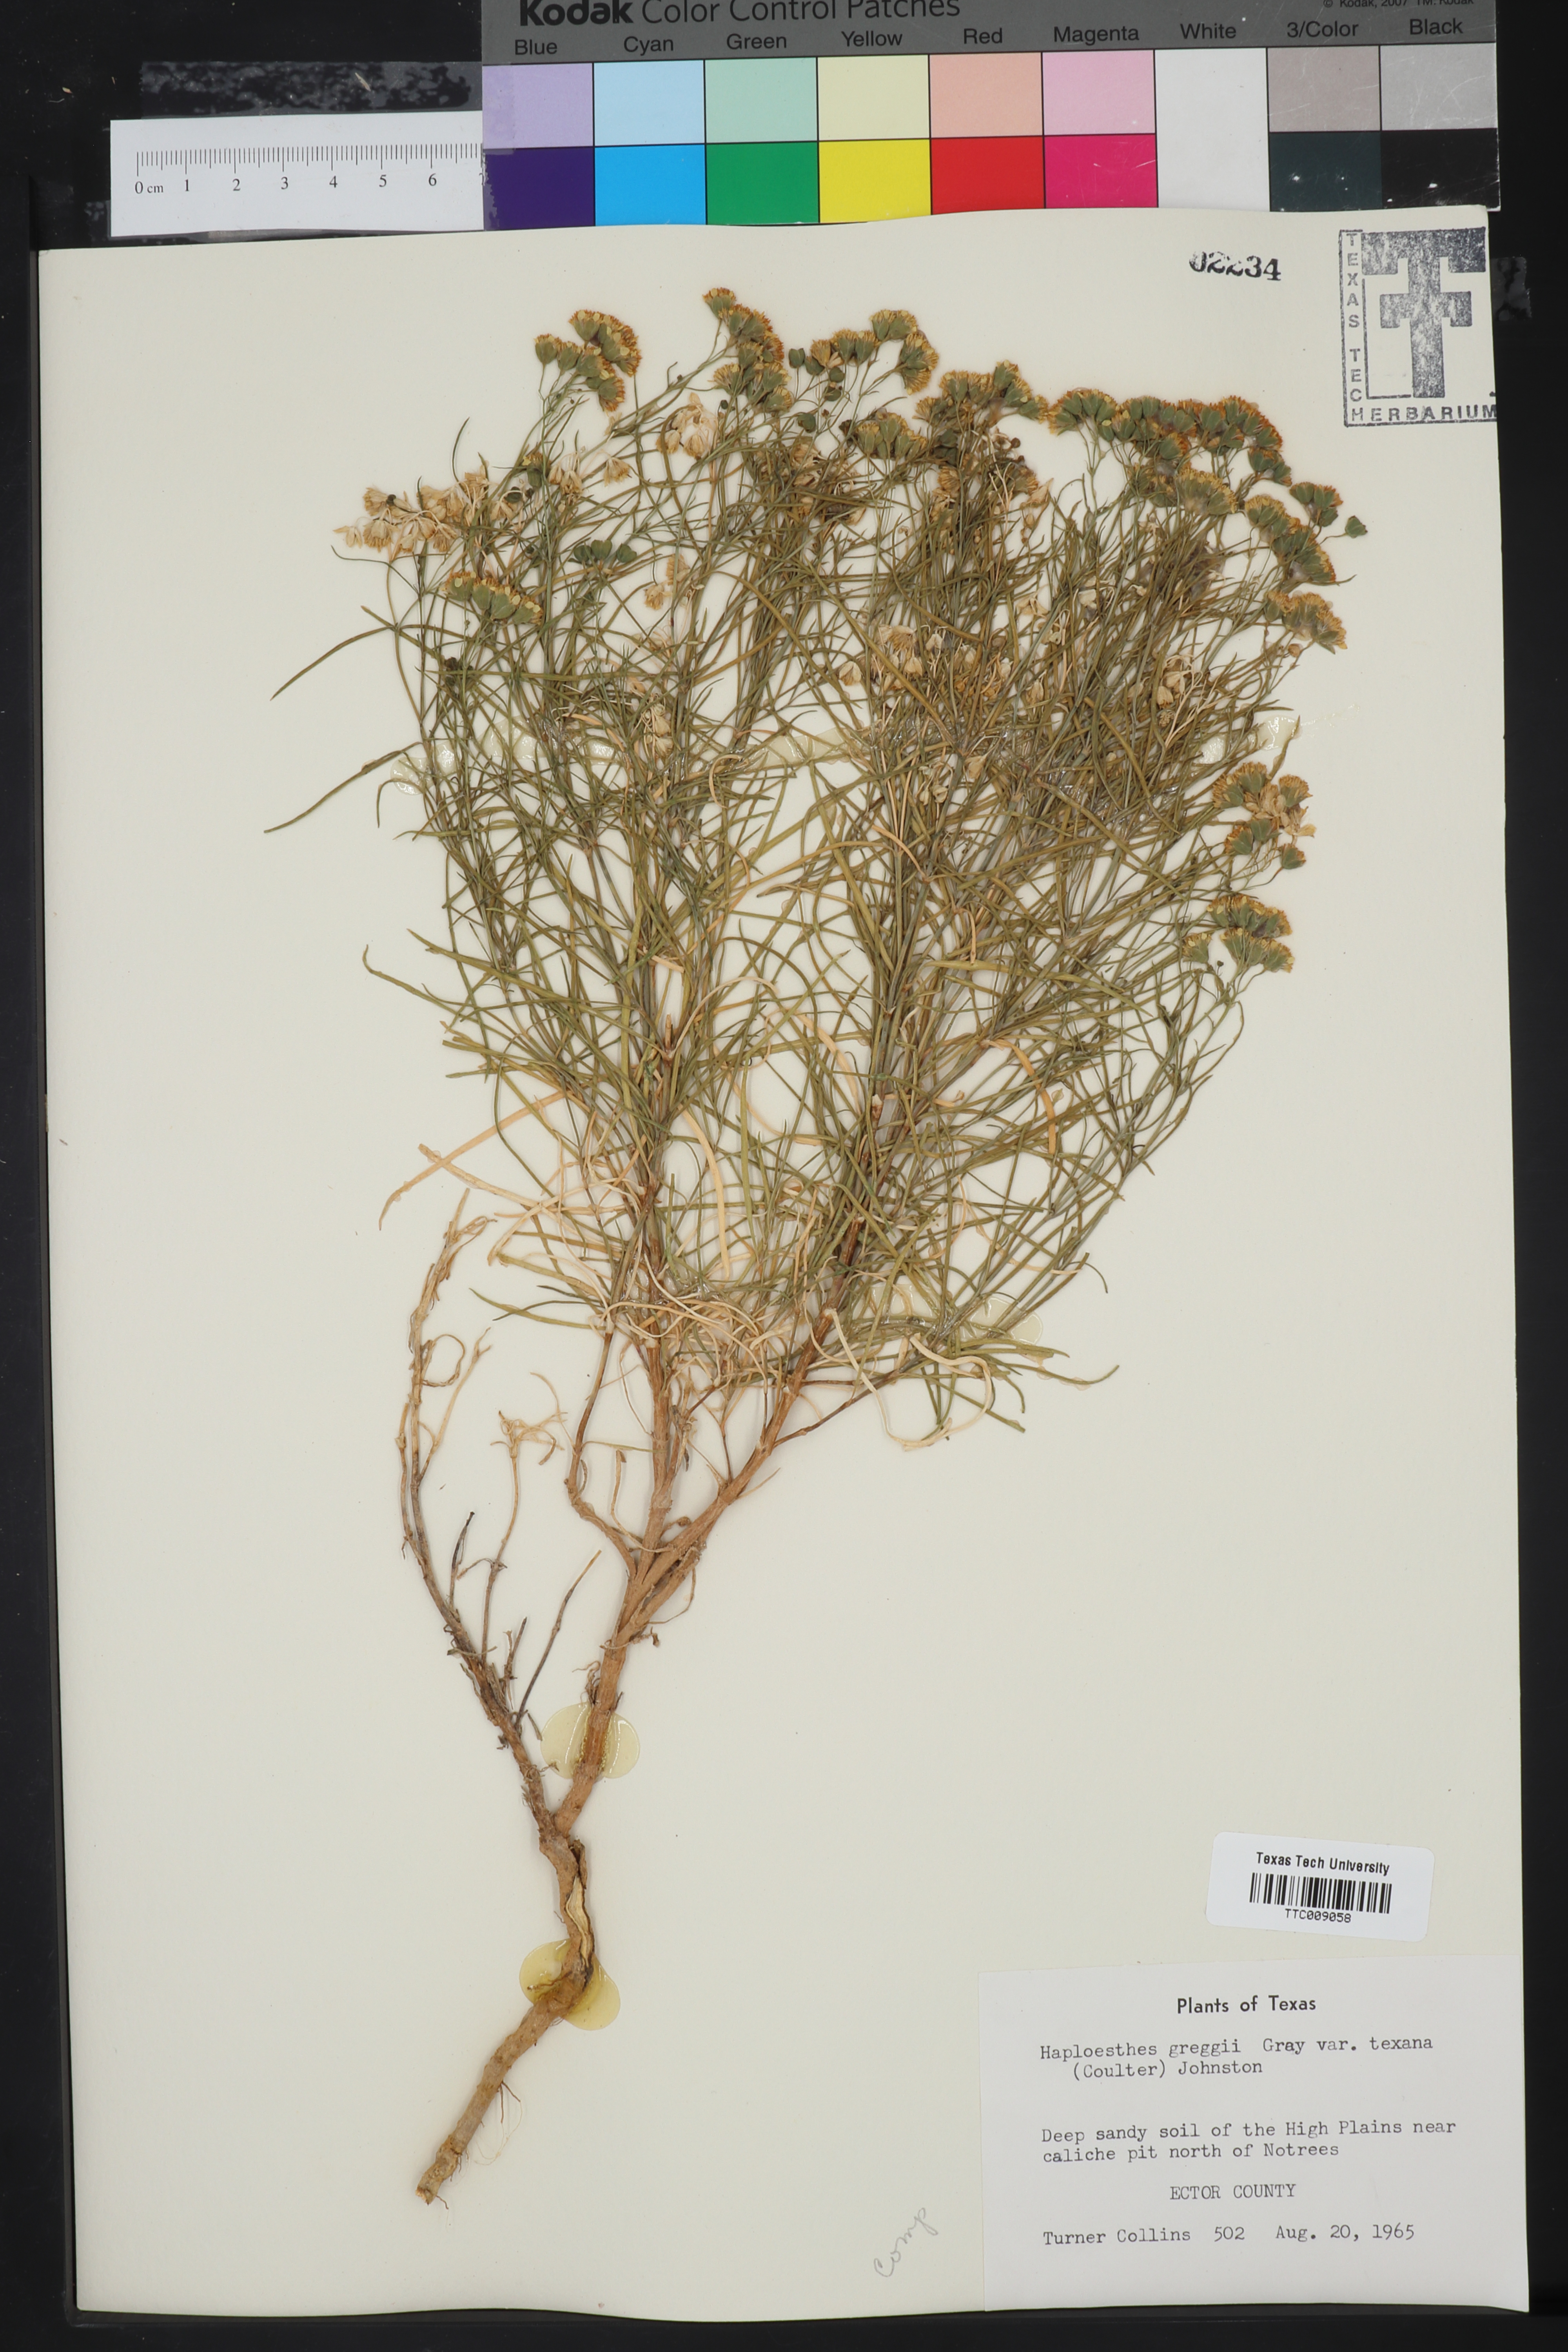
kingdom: Plantae
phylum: Tracheophyta
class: Magnoliopsida
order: Asterales
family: Asteraceae
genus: Haploesthes
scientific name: Haploesthes greggii
